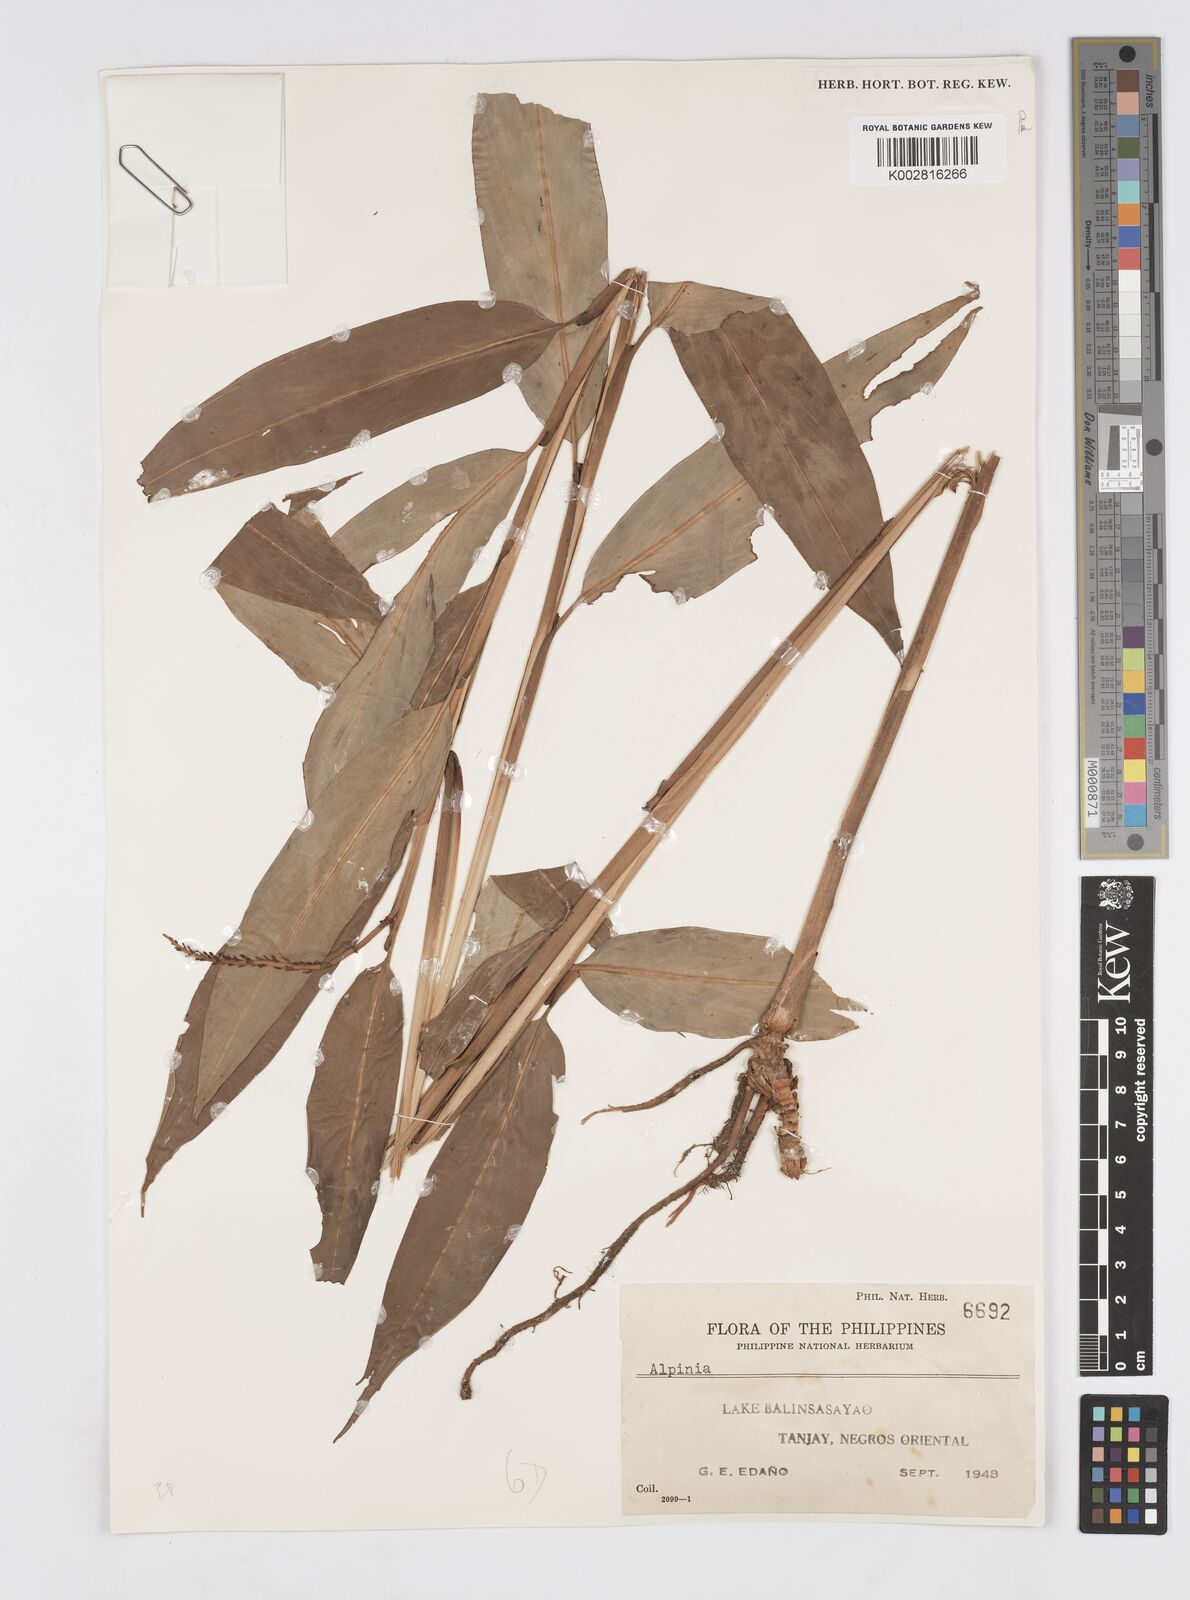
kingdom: Plantae
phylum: Tracheophyta
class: Liliopsida
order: Zingiberales
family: Zingiberaceae
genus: Alpinia
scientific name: Alpinia
